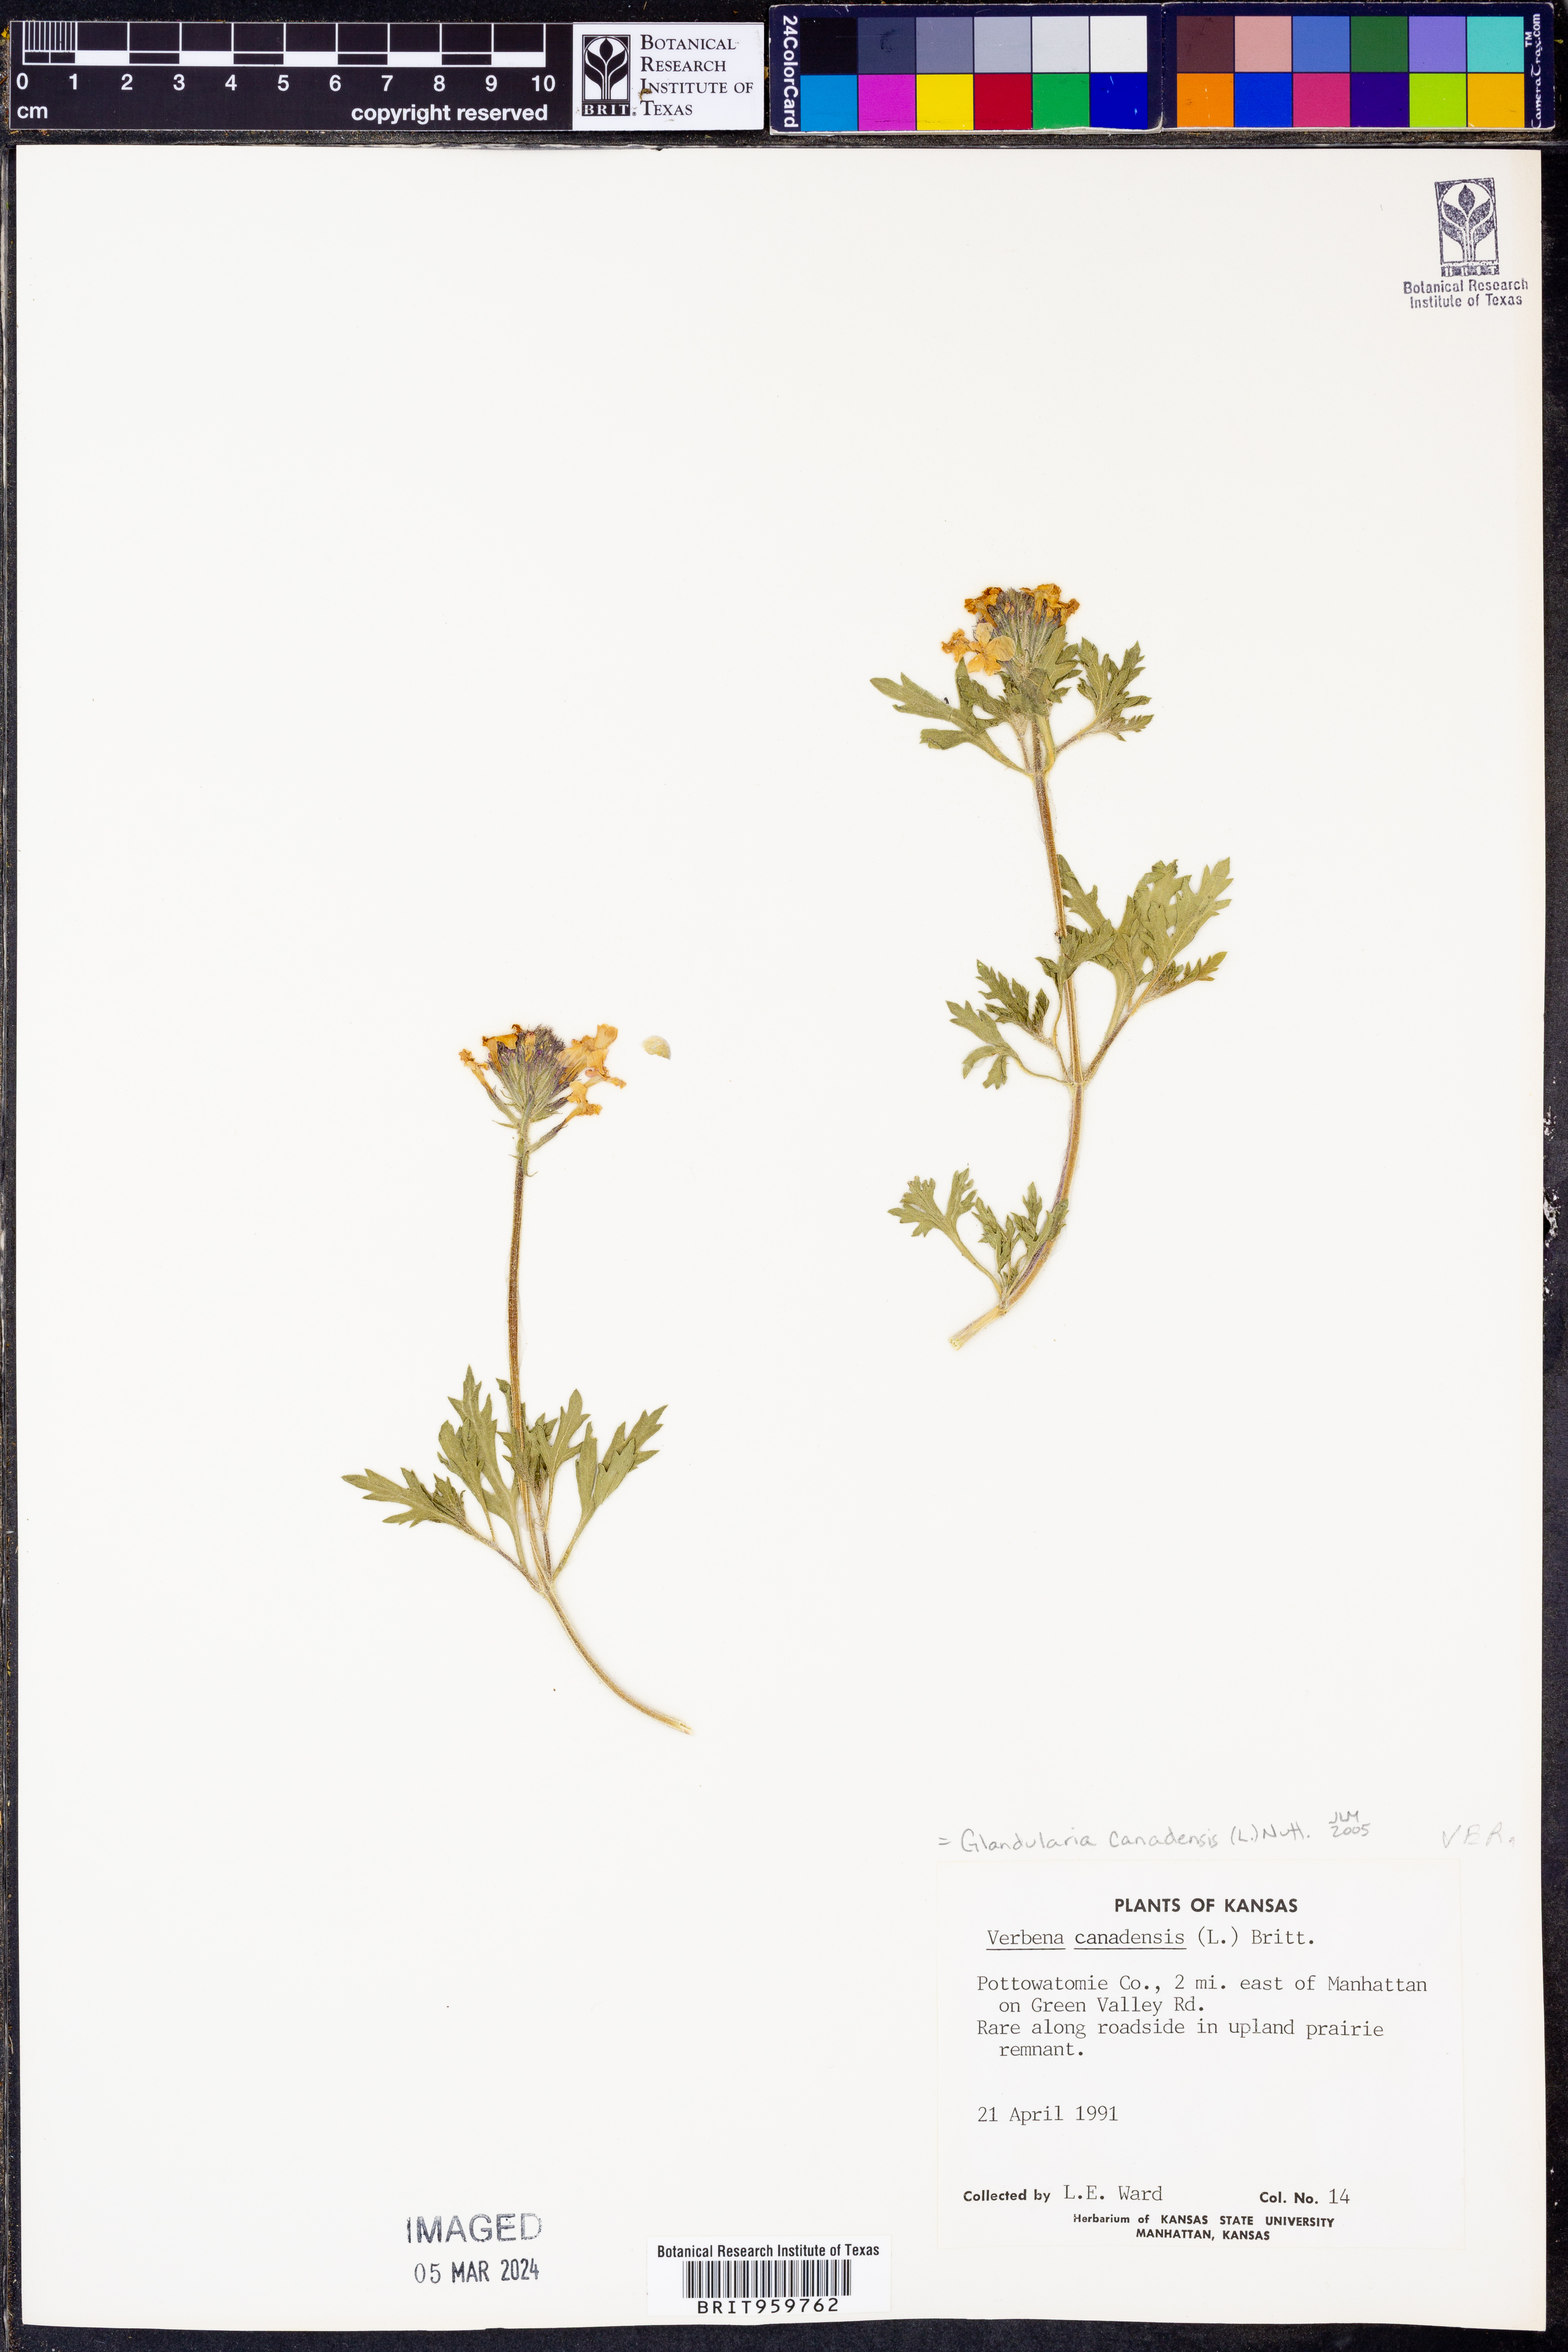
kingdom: Plantae
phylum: Tracheophyta
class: Magnoliopsida
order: Lamiales
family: Verbenaceae
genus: Verbena
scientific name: Verbena canadensis
